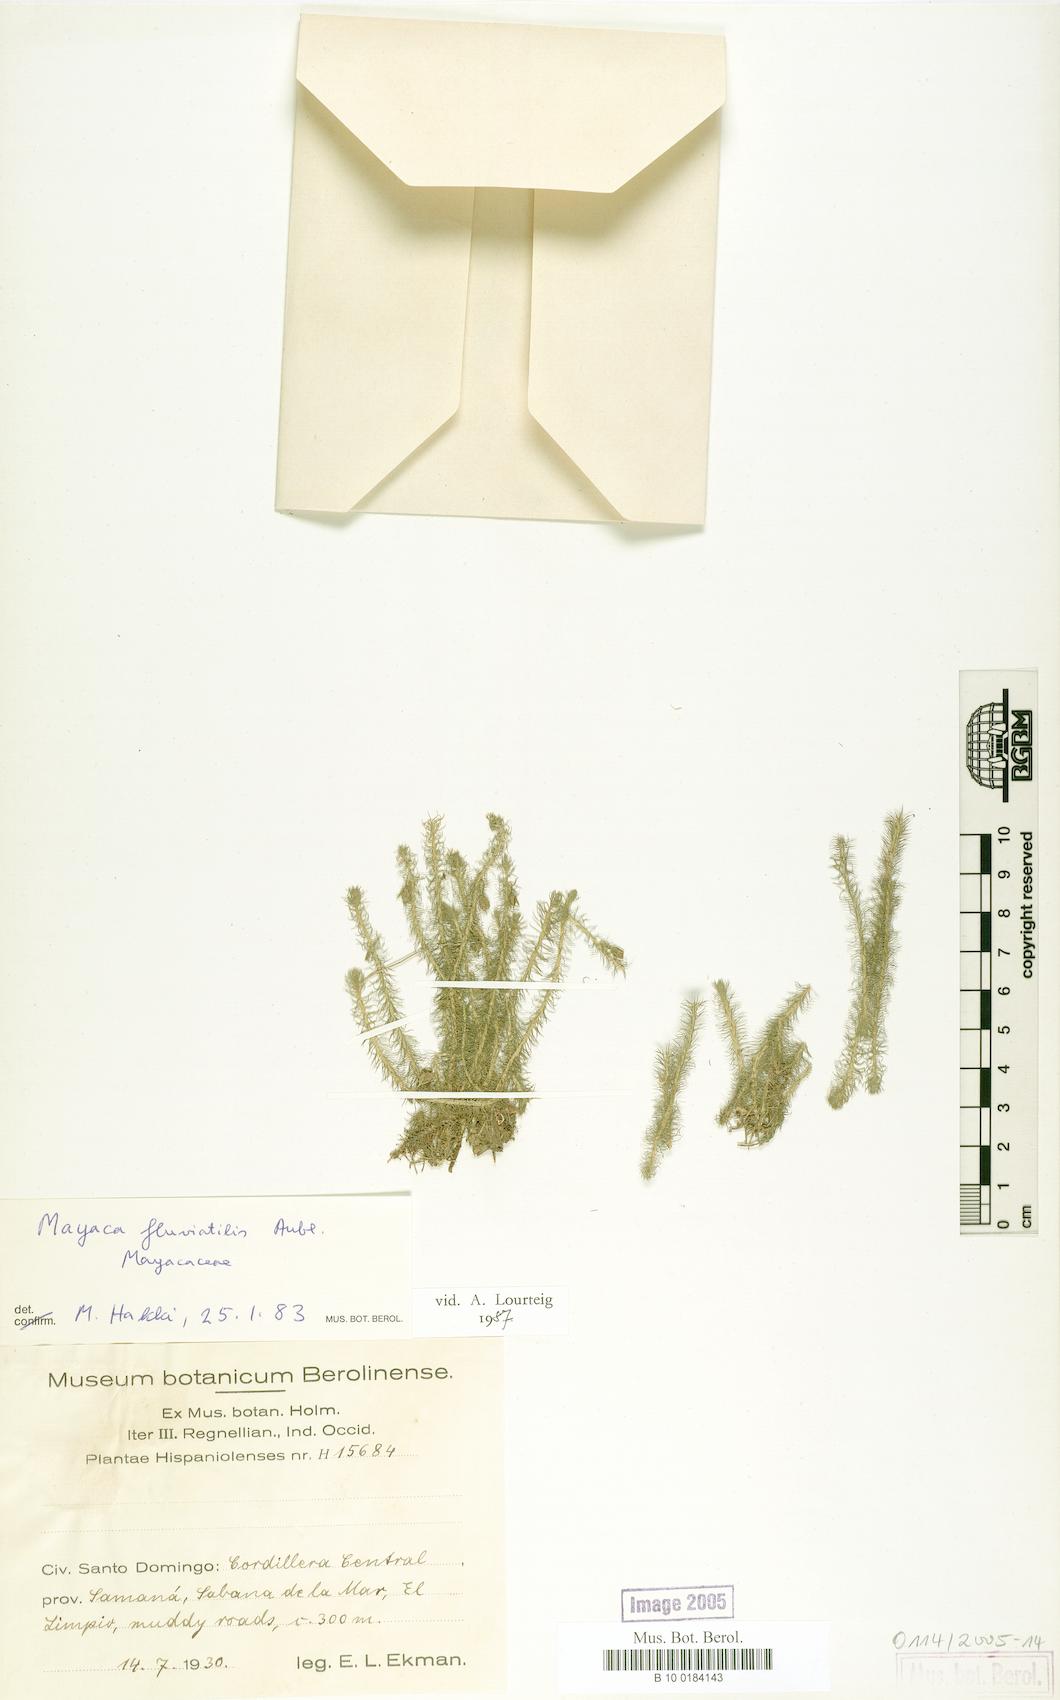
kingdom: Plantae
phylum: Tracheophyta
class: Liliopsida
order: Poales
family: Mayacaceae
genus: Mayaca
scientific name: Mayaca fluviatilis
